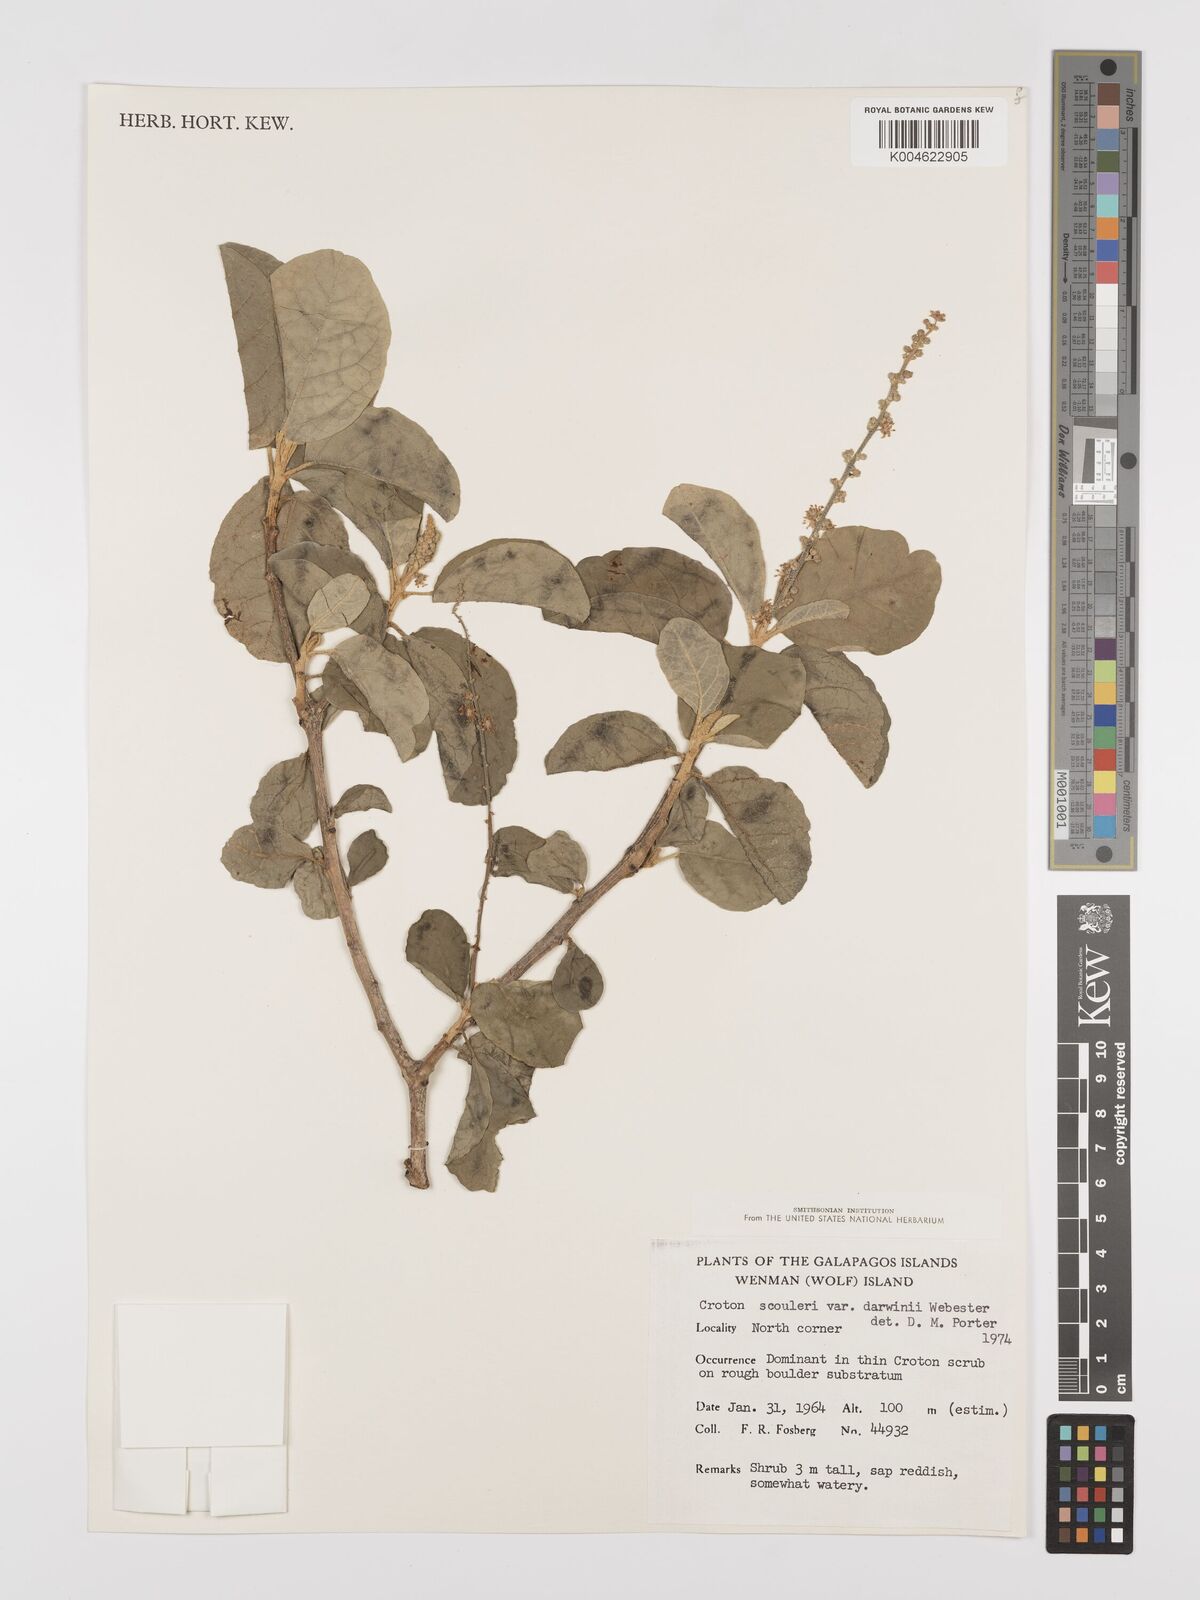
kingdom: Plantae
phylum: Tracheophyta
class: Magnoliopsida
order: Malpighiales
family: Euphorbiaceae
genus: Croton
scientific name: Croton scouleri
